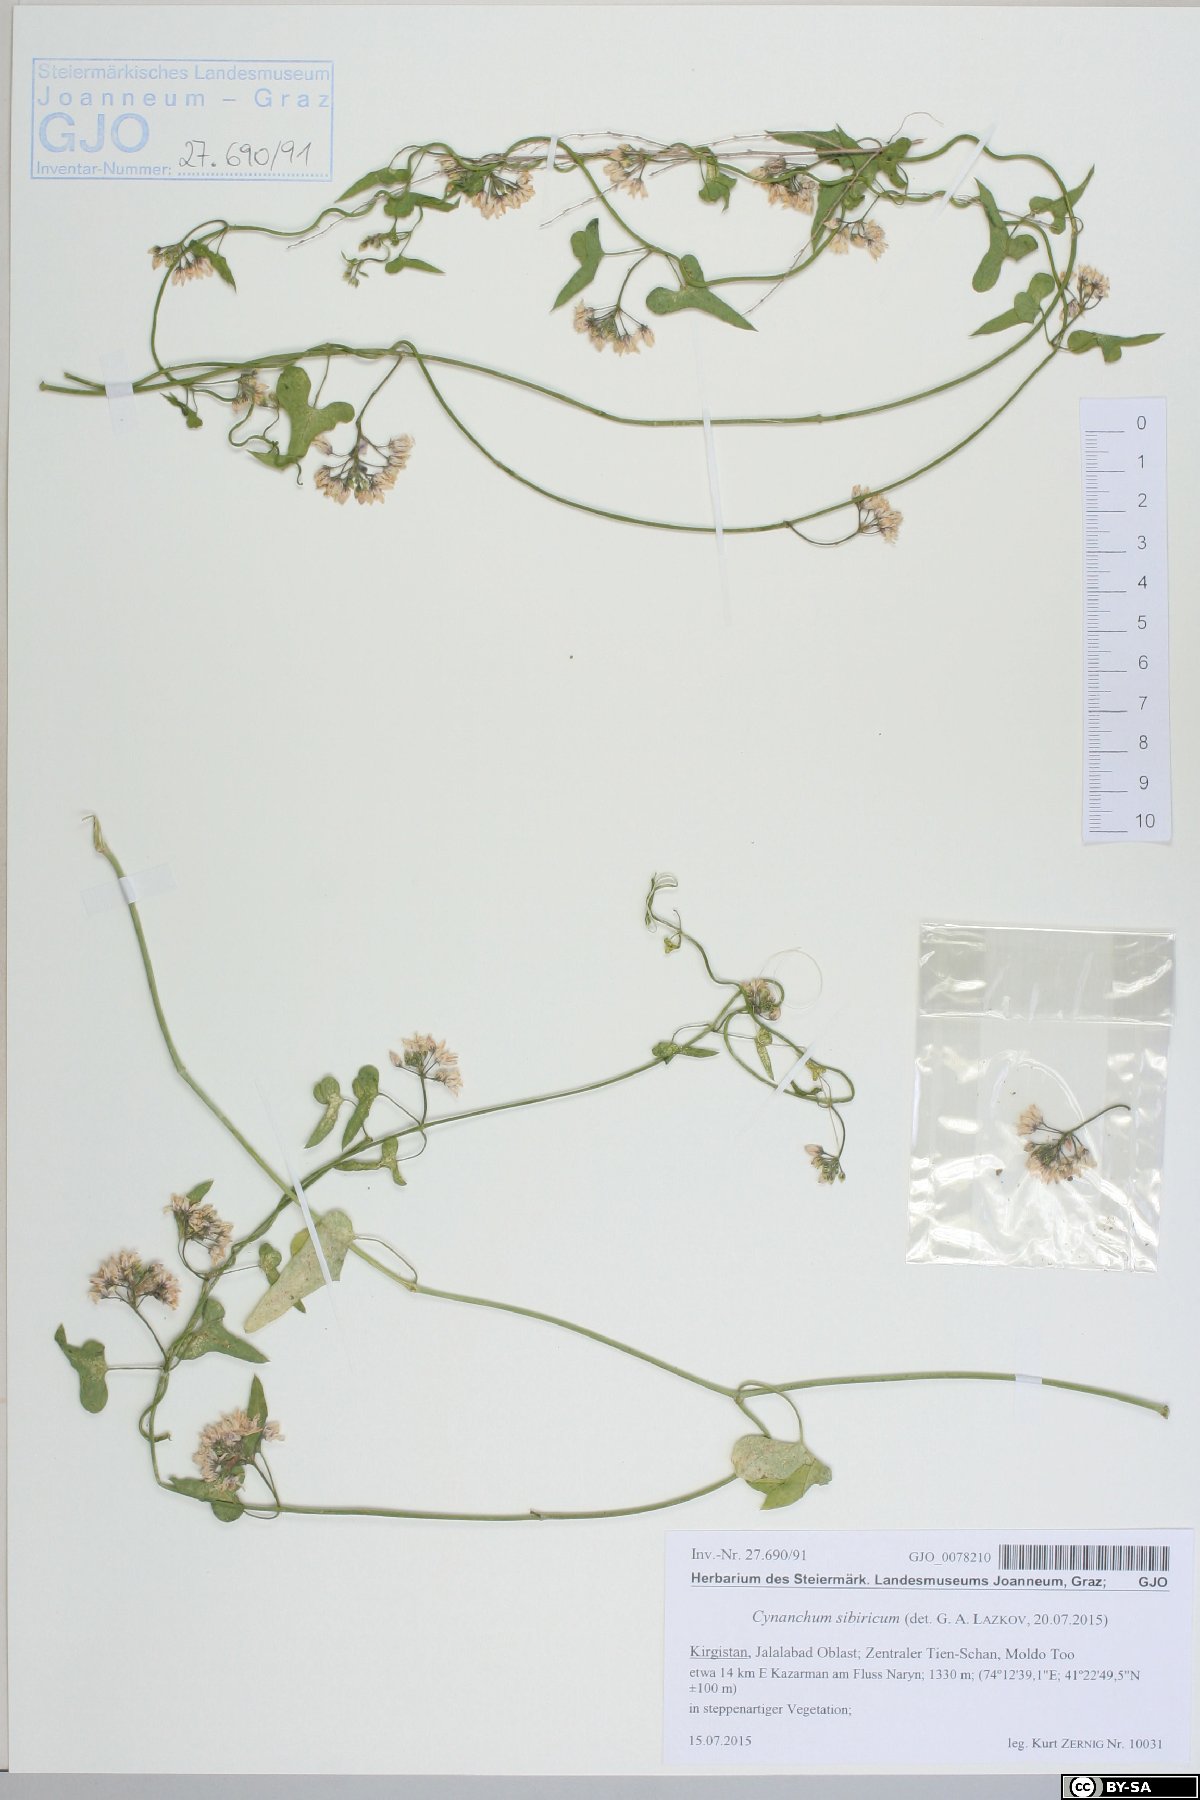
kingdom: Plantae
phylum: Tracheophyta
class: Magnoliopsida
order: Gentianales
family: Apocynaceae
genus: Cynanchum
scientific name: Cynanchum acutum
